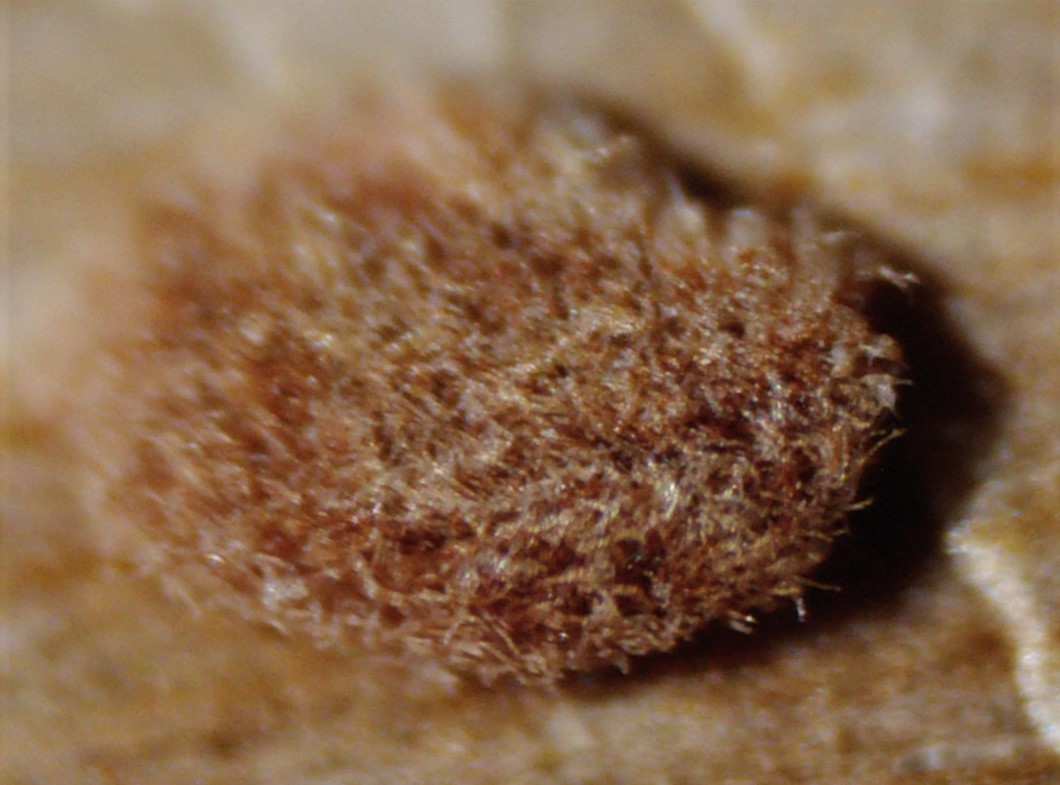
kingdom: Fungi
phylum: Ascomycota
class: Sordariomycetes
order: Hypocreales
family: Nectriaceae
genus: Sarcopodium
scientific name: Sarcopodium circinatum
